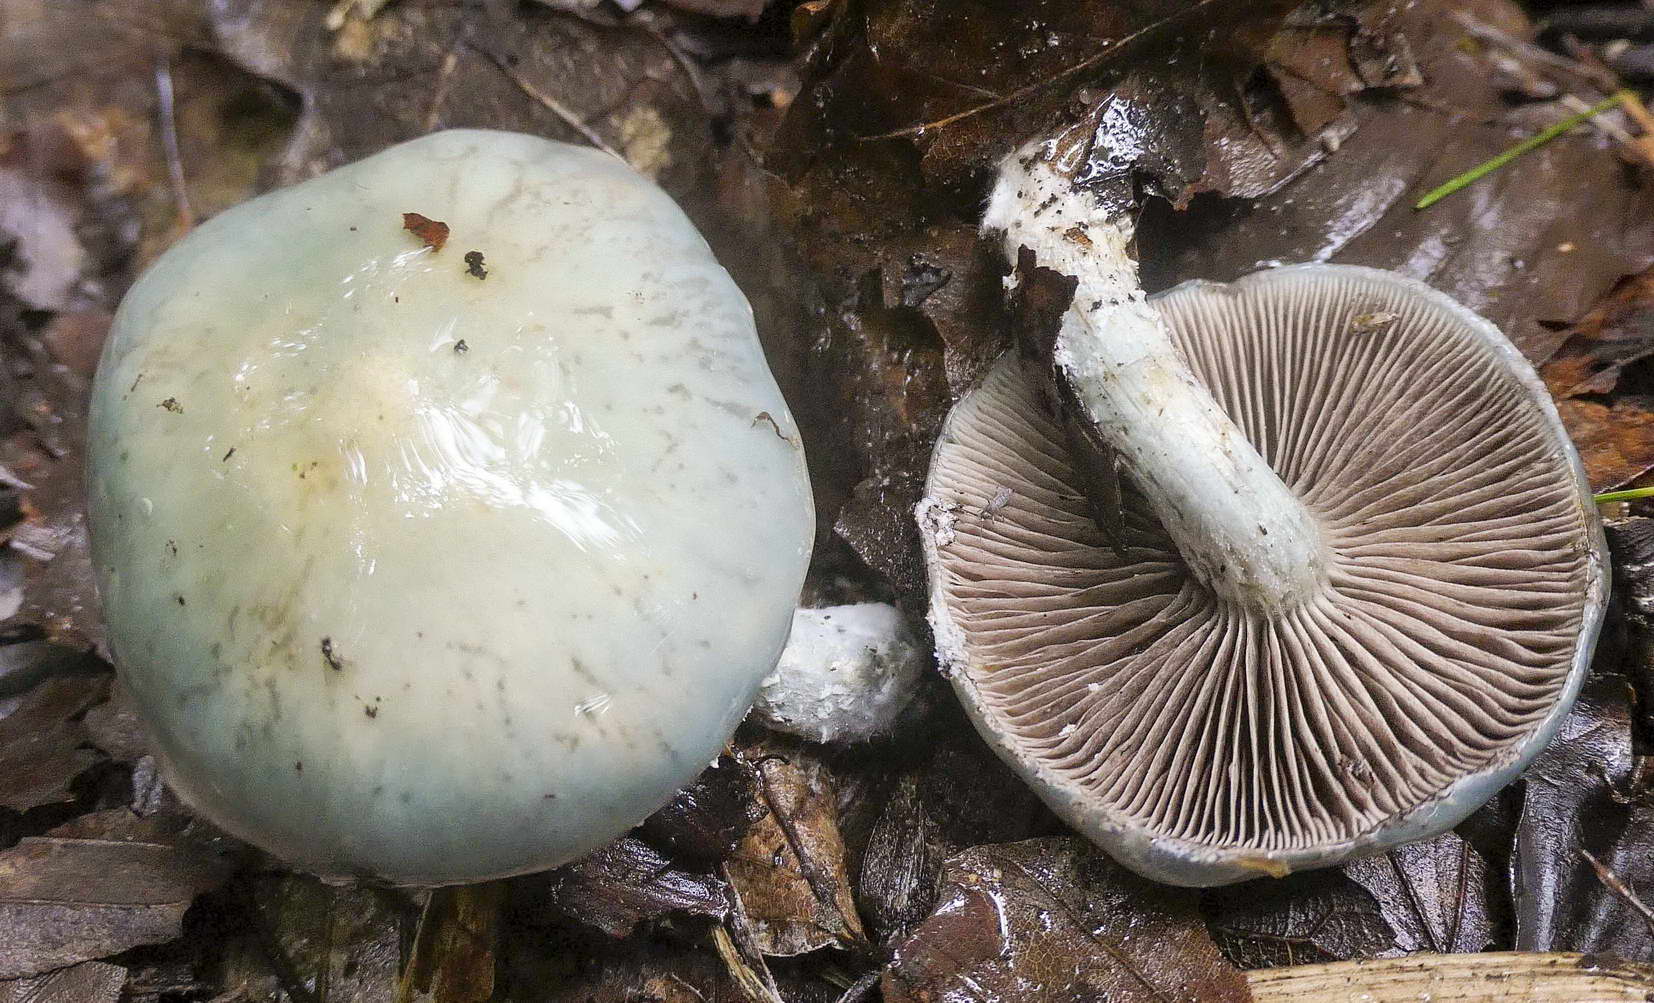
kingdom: Fungi
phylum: Basidiomycota
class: Agaricomycetes
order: Agaricales
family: Strophariaceae
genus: Stropharia
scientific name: Stropharia pseudocyanea
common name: blegblå bredblad
